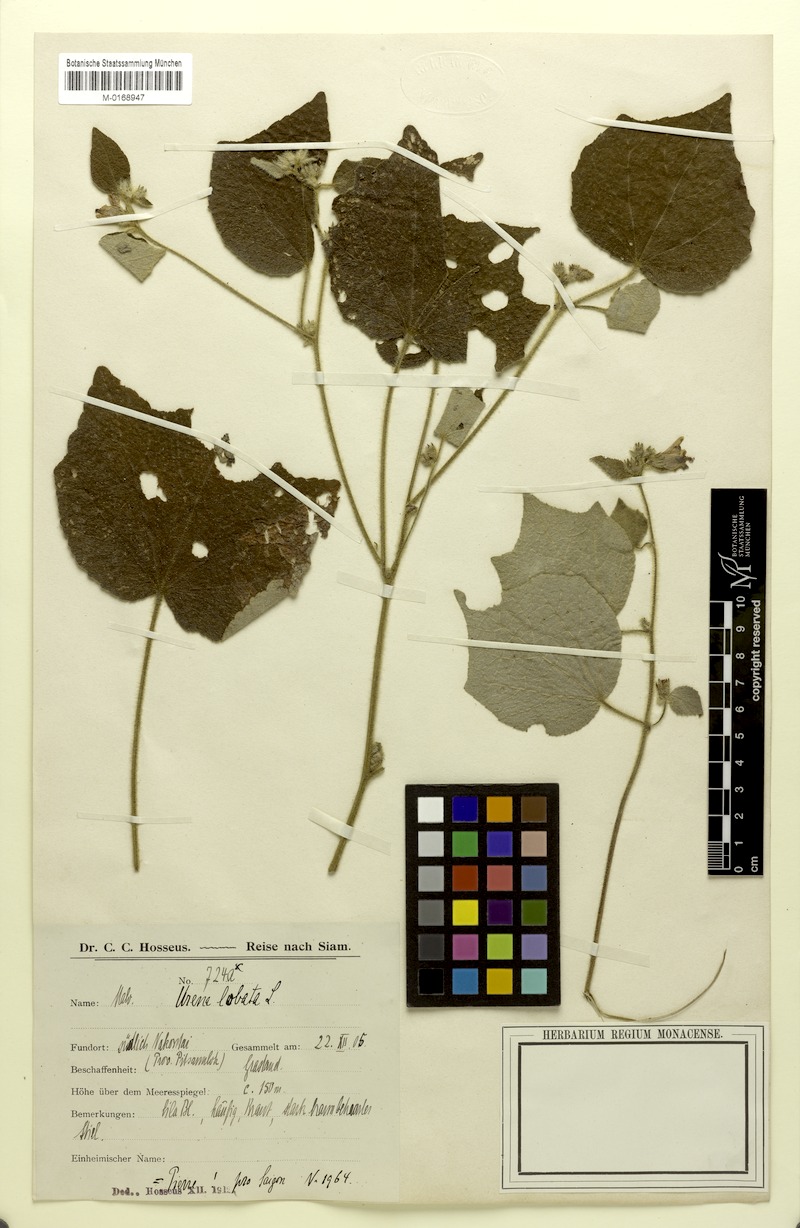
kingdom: Plantae
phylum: Tracheophyta
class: Magnoliopsida
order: Malvales
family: Malvaceae
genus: Urena
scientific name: Urena lobata
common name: Caesarweed
